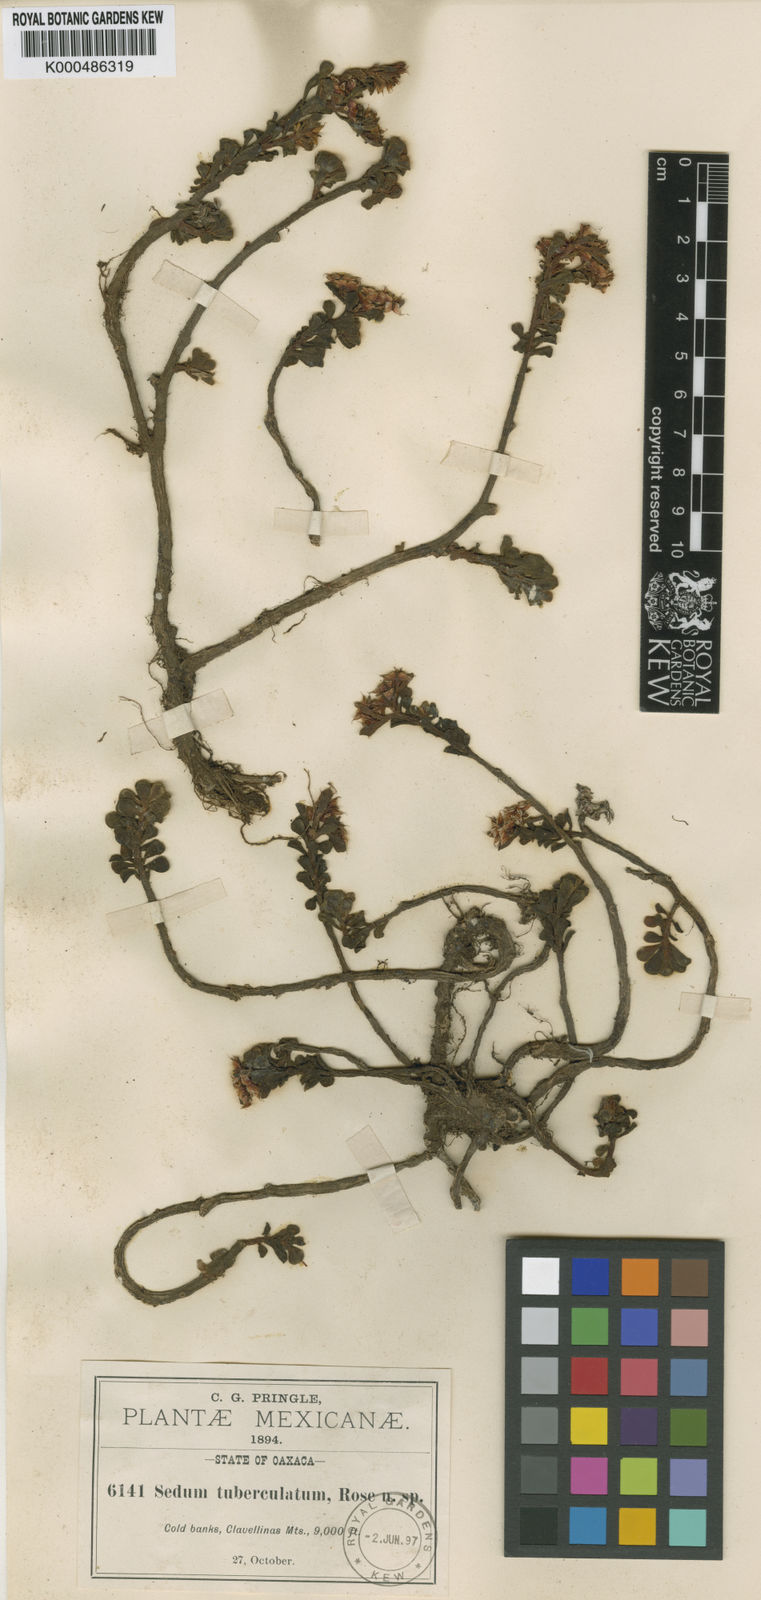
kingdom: Plantae
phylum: Tracheophyta
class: Magnoliopsida
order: Saxifragales
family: Crassulaceae
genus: Sedum
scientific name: Sedum tuberculatum
